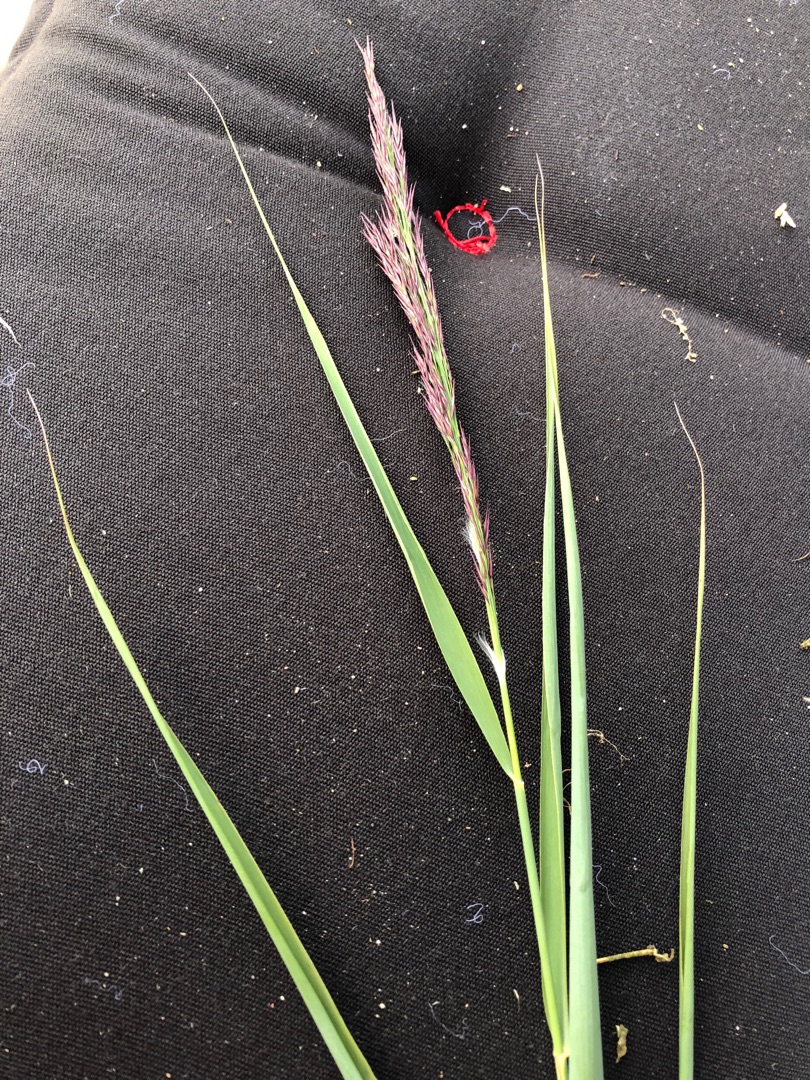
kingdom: Plantae
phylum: Tracheophyta
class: Liliopsida
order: Poales
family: Poaceae
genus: Phragmites
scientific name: Phragmites australis
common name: Tagrør
